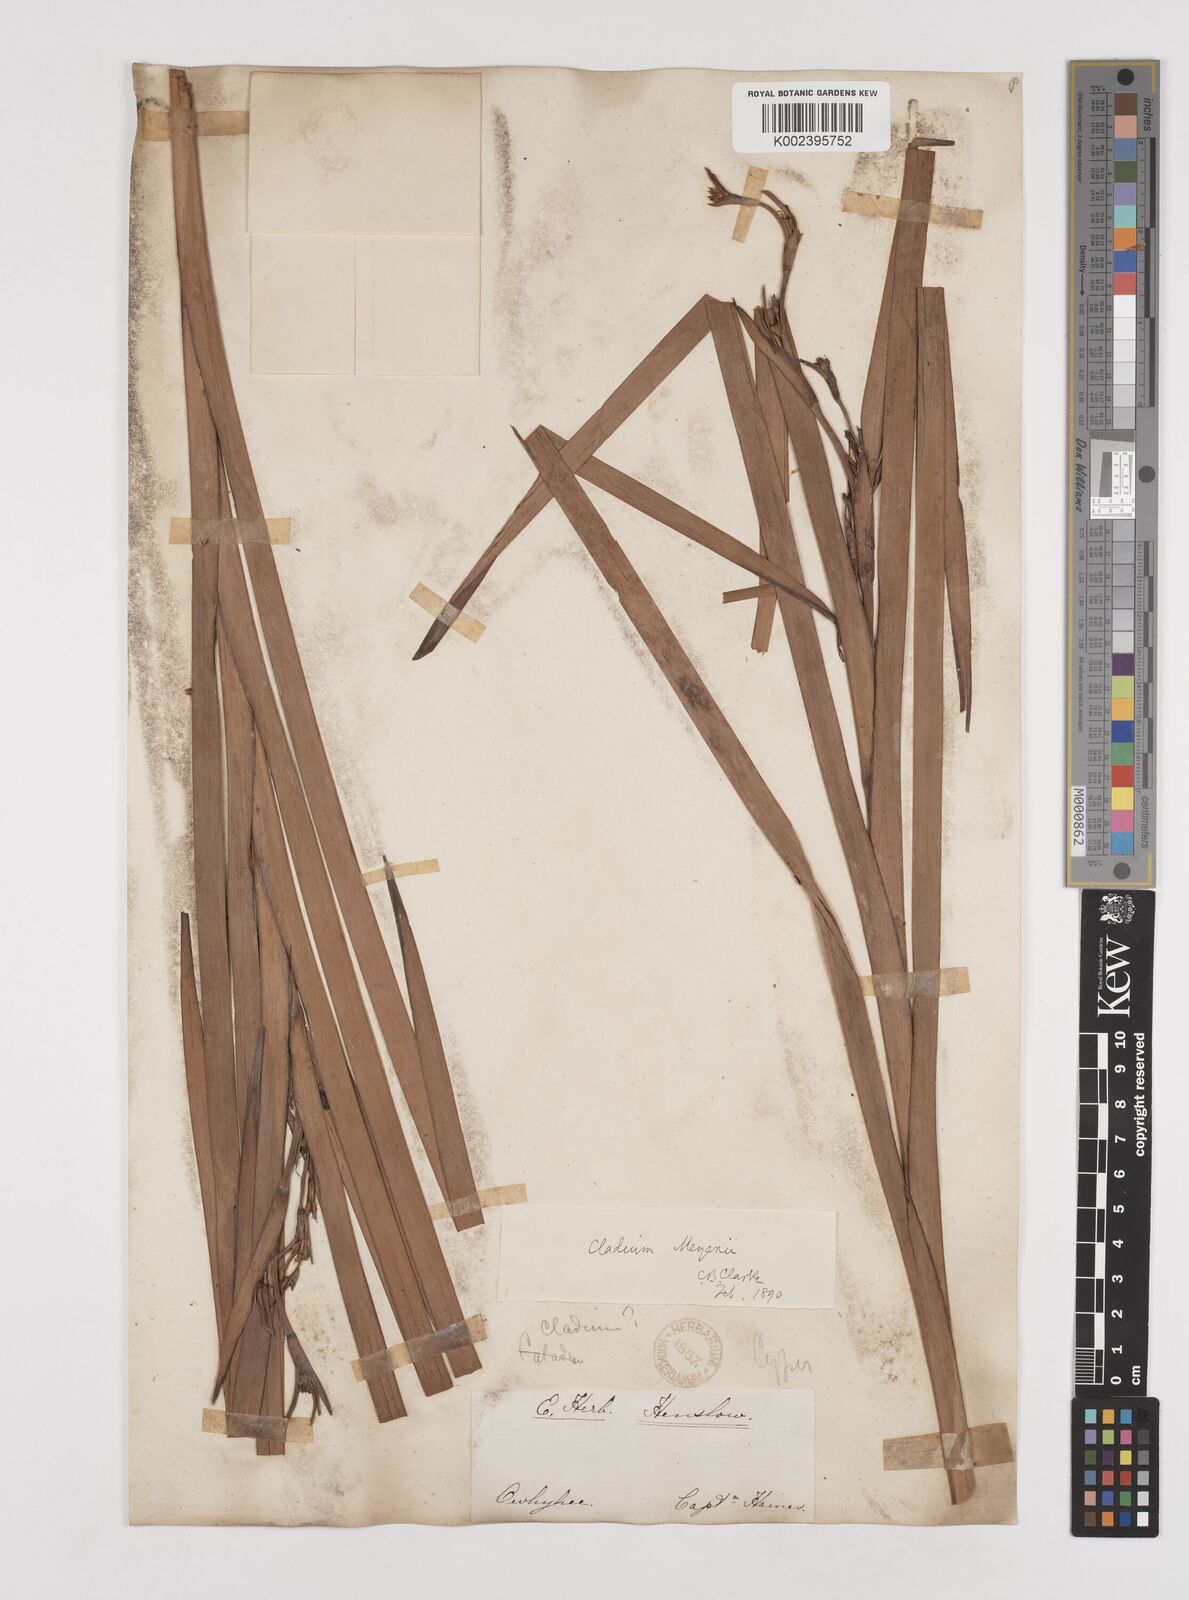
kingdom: Plantae
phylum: Tracheophyta
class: Liliopsida
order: Poales
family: Cyperaceae
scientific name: Cyperaceae
